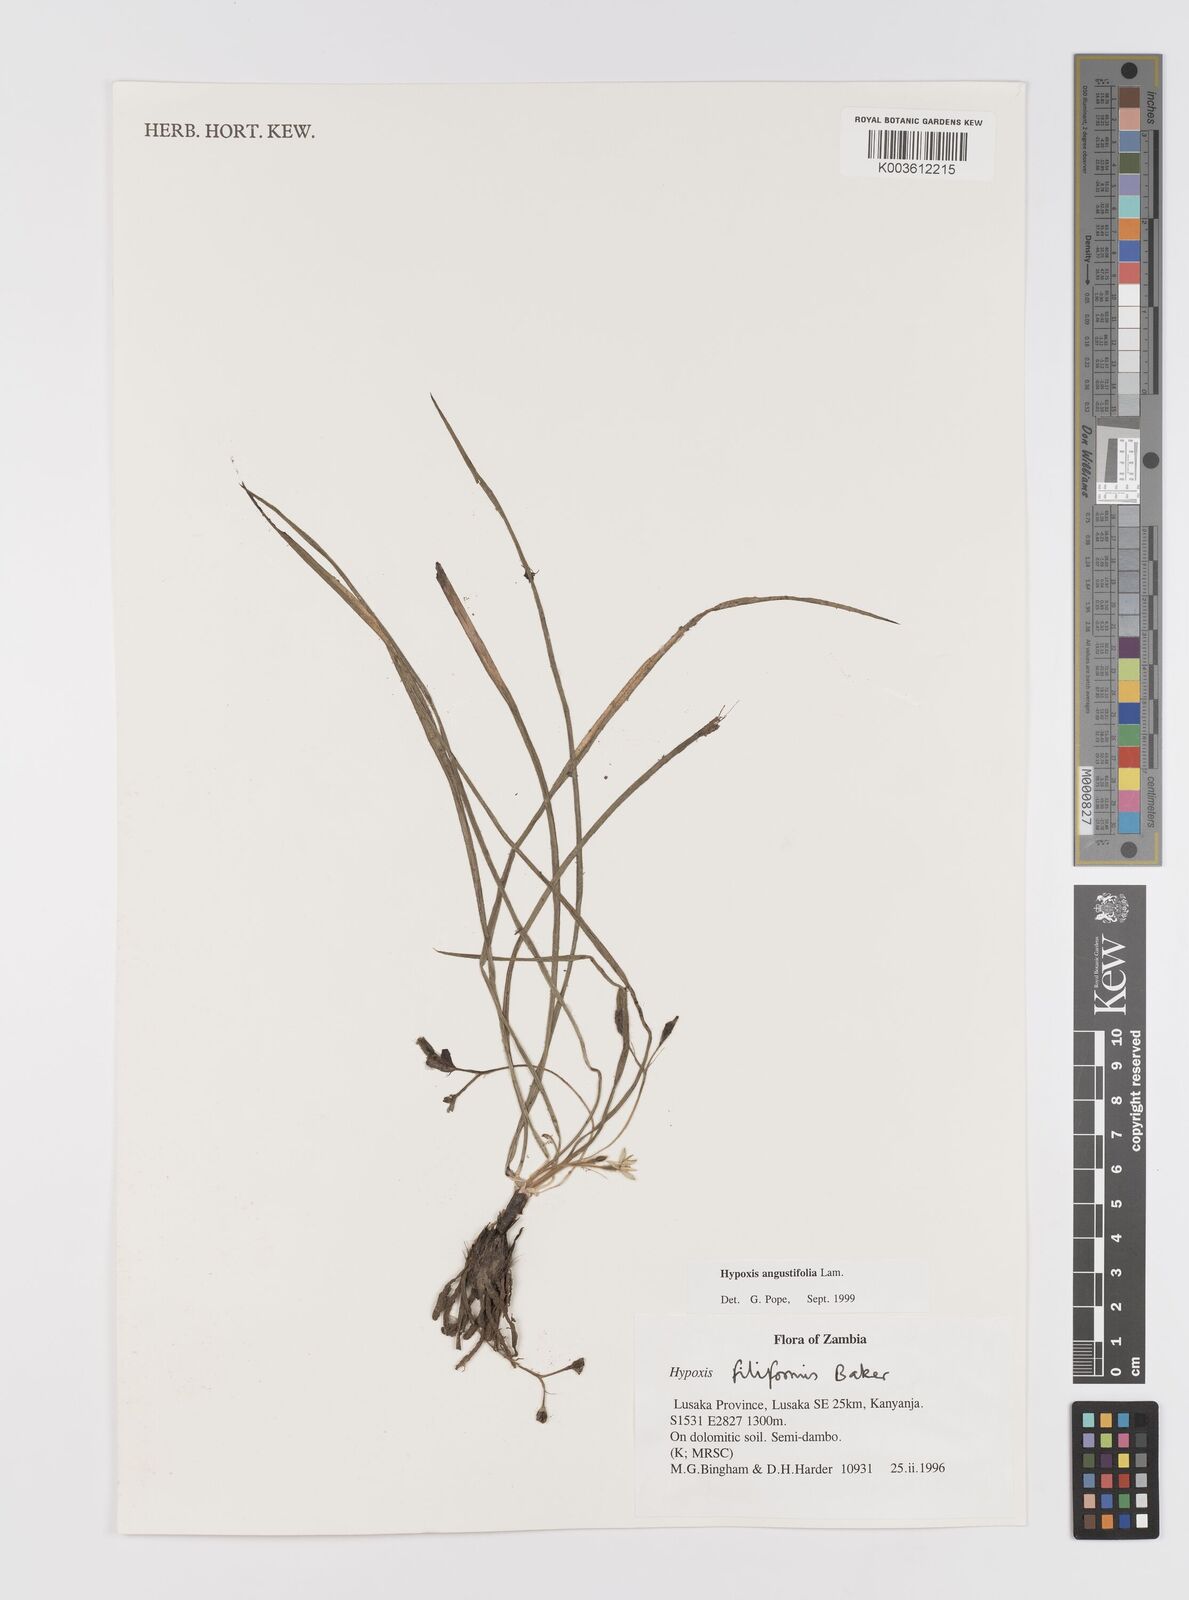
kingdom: Plantae
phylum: Tracheophyta
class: Liliopsida
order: Asparagales
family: Hypoxidaceae
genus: Hypoxis
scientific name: Hypoxis angustifolia
